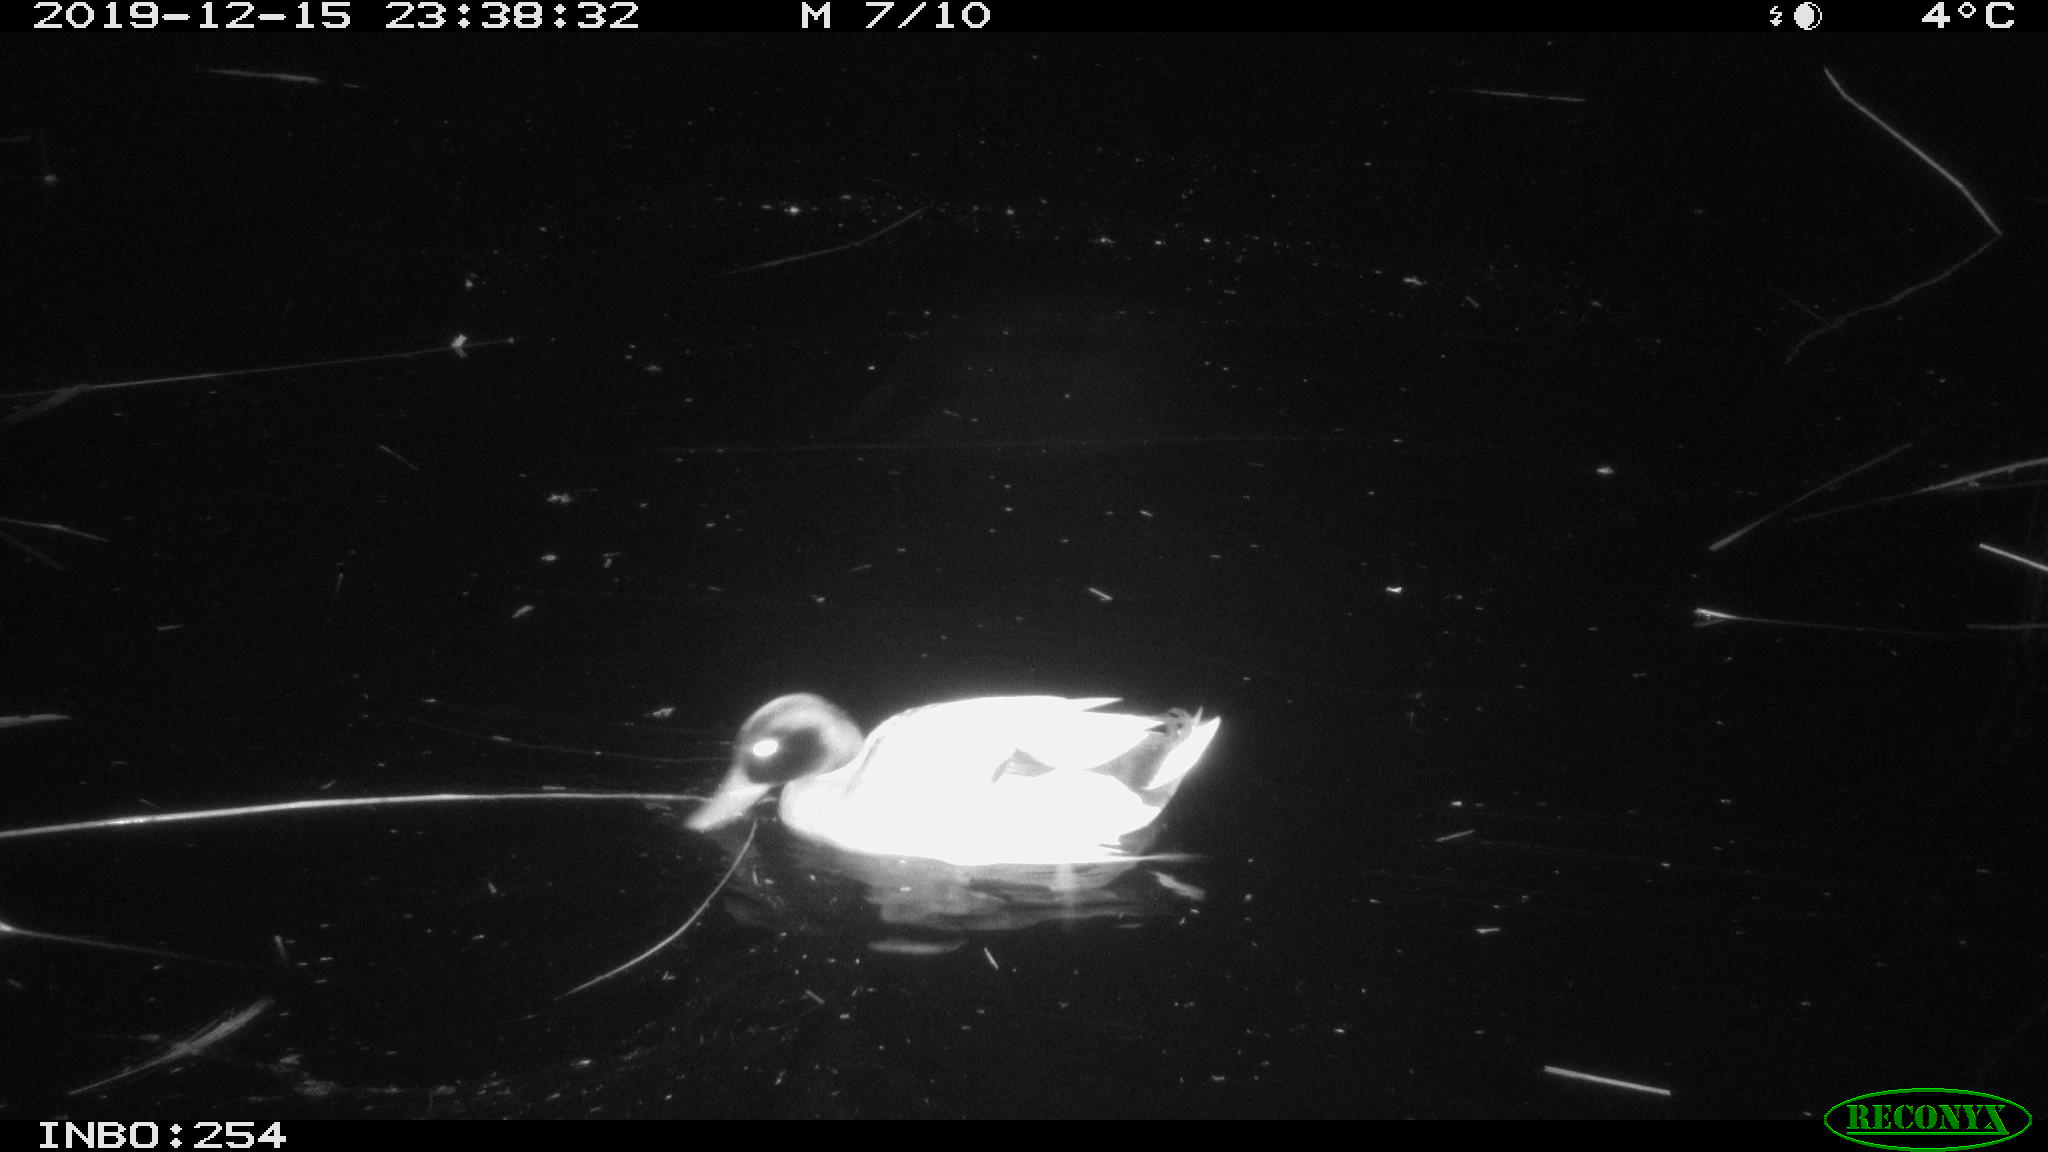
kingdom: Animalia
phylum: Chordata
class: Aves
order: Anseriformes
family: Anatidae
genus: Anas
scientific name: Anas platyrhynchos
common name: Mallard
